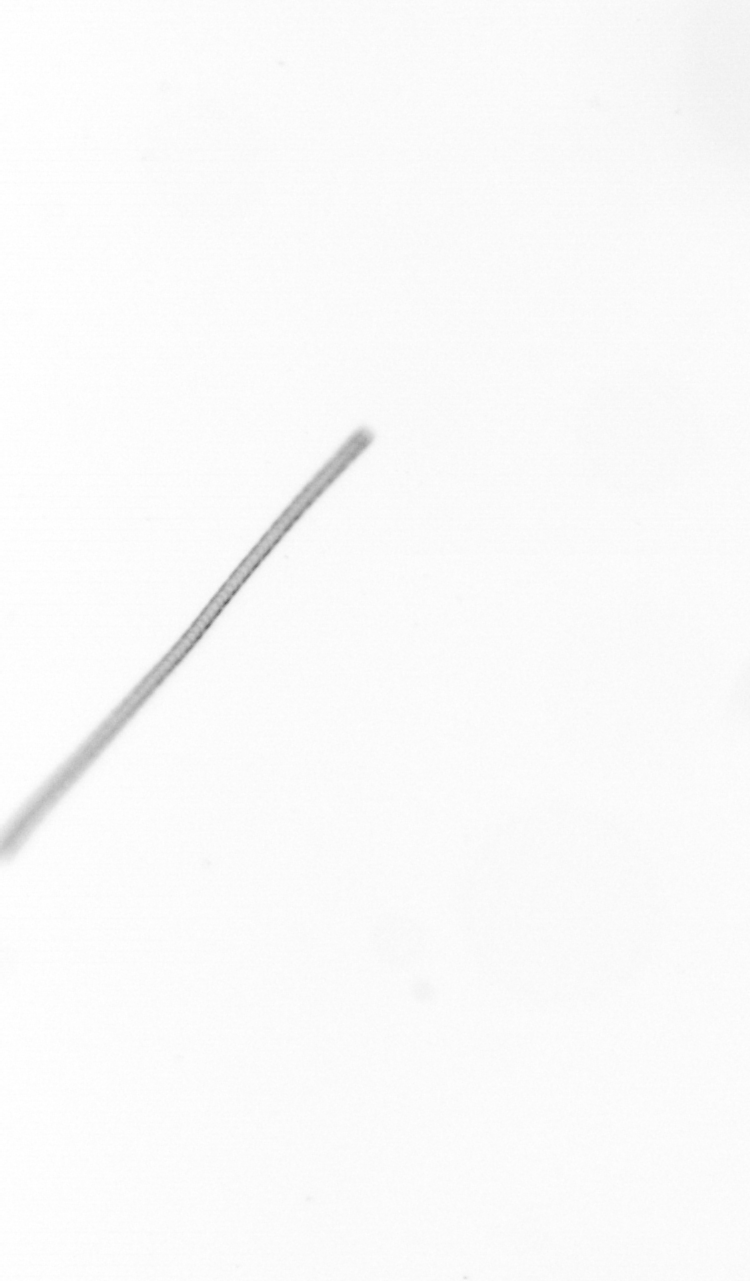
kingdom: Chromista
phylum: Ochrophyta
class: Bacillariophyceae
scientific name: Bacillariophyceae
